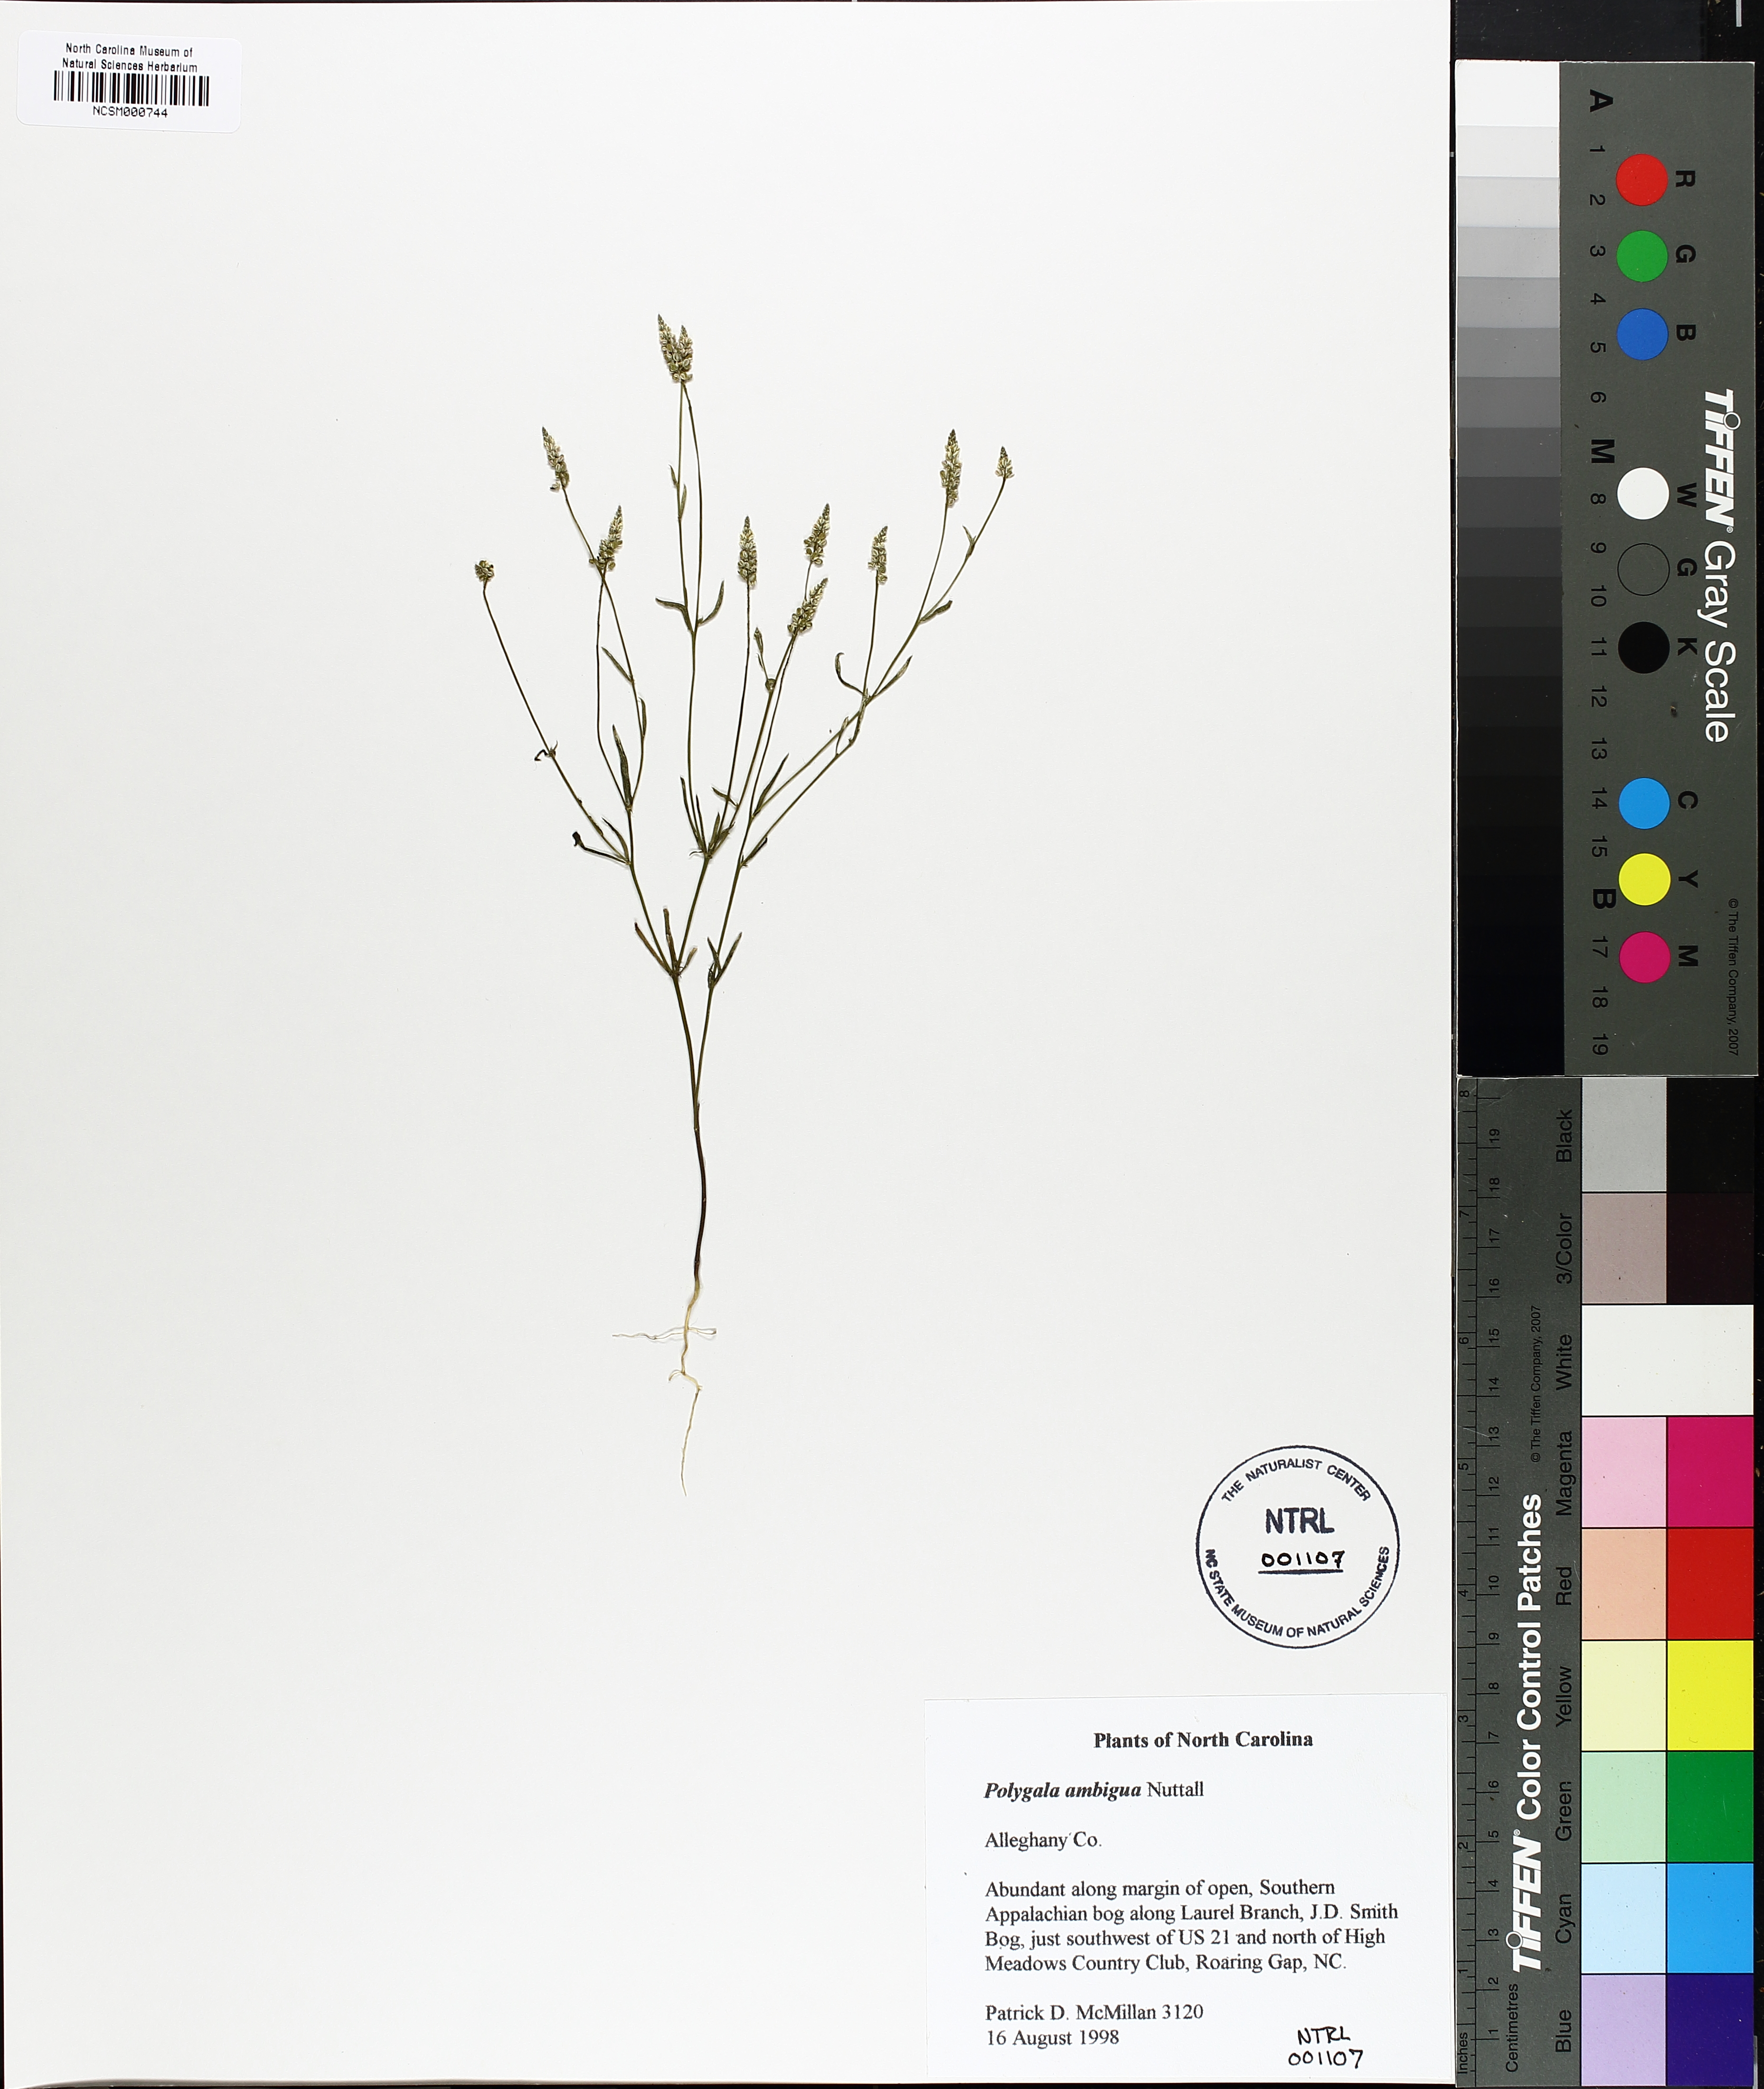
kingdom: Plantae
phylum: Tracheophyta
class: Magnoliopsida
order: Fabales
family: Polygalaceae
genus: Polygala
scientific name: Polygala ambigua
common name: Alternate milkwort
